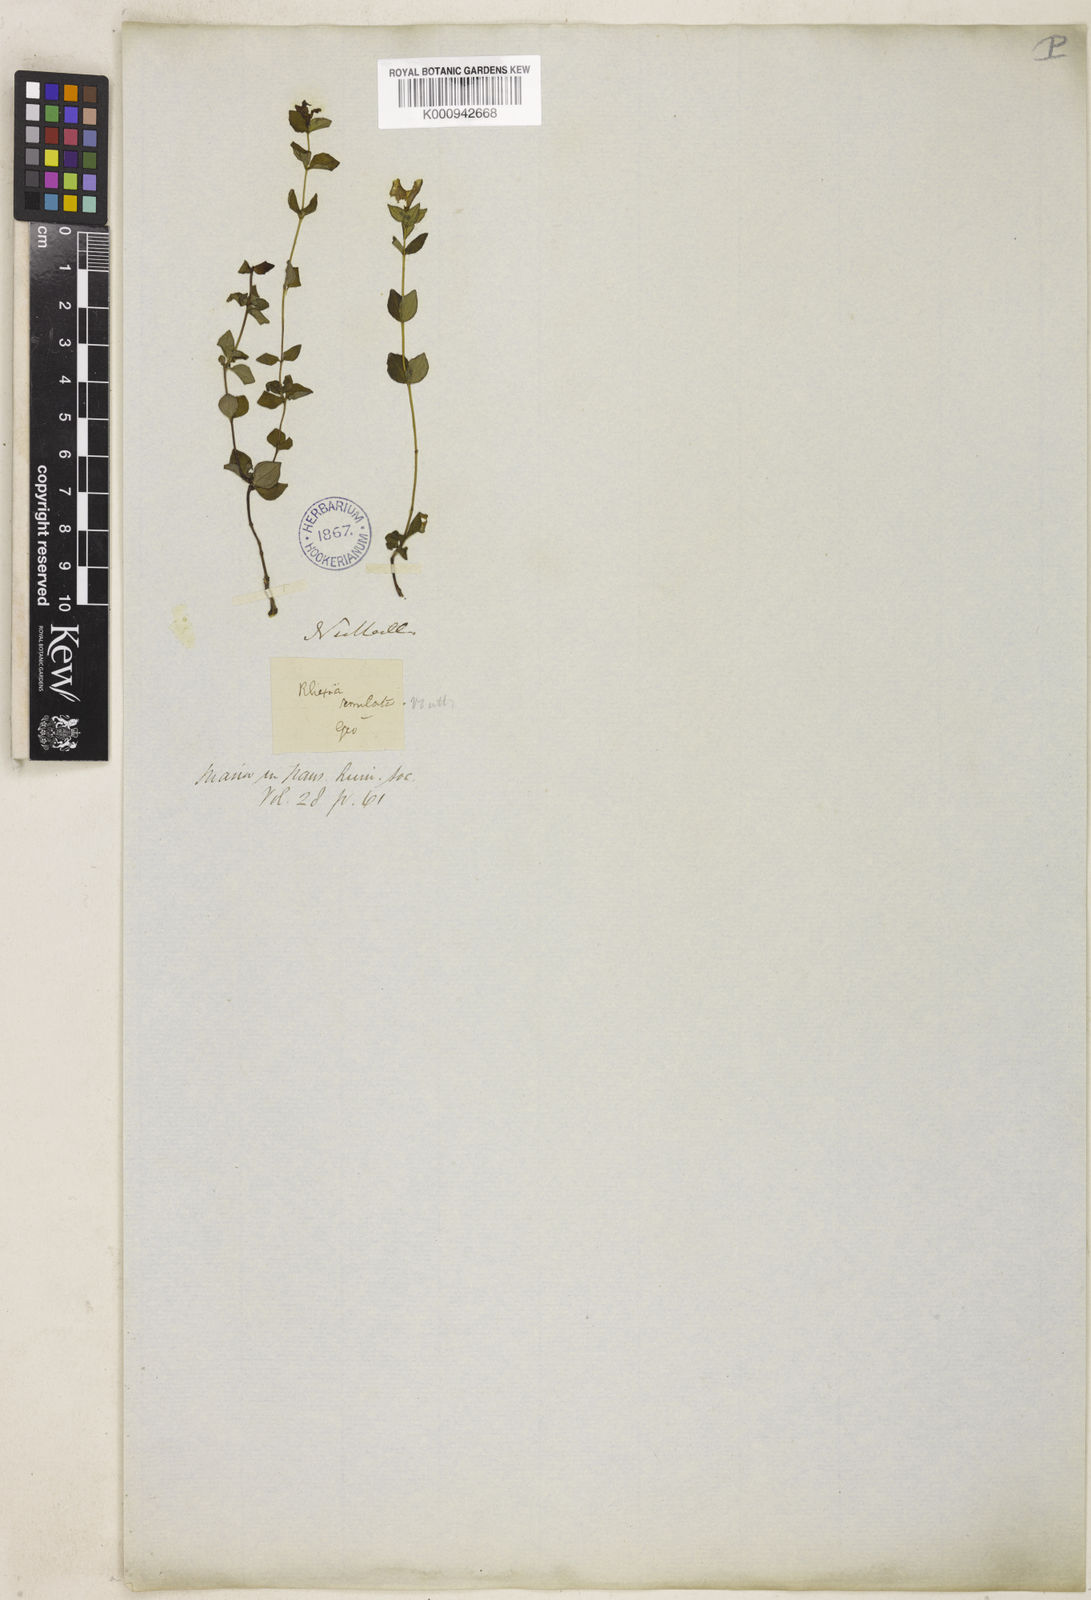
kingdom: Plantae
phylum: Tracheophyta
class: Magnoliopsida
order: Myrtales
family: Melastomataceae
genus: Rhexia
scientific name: Rhexia nuttallii
